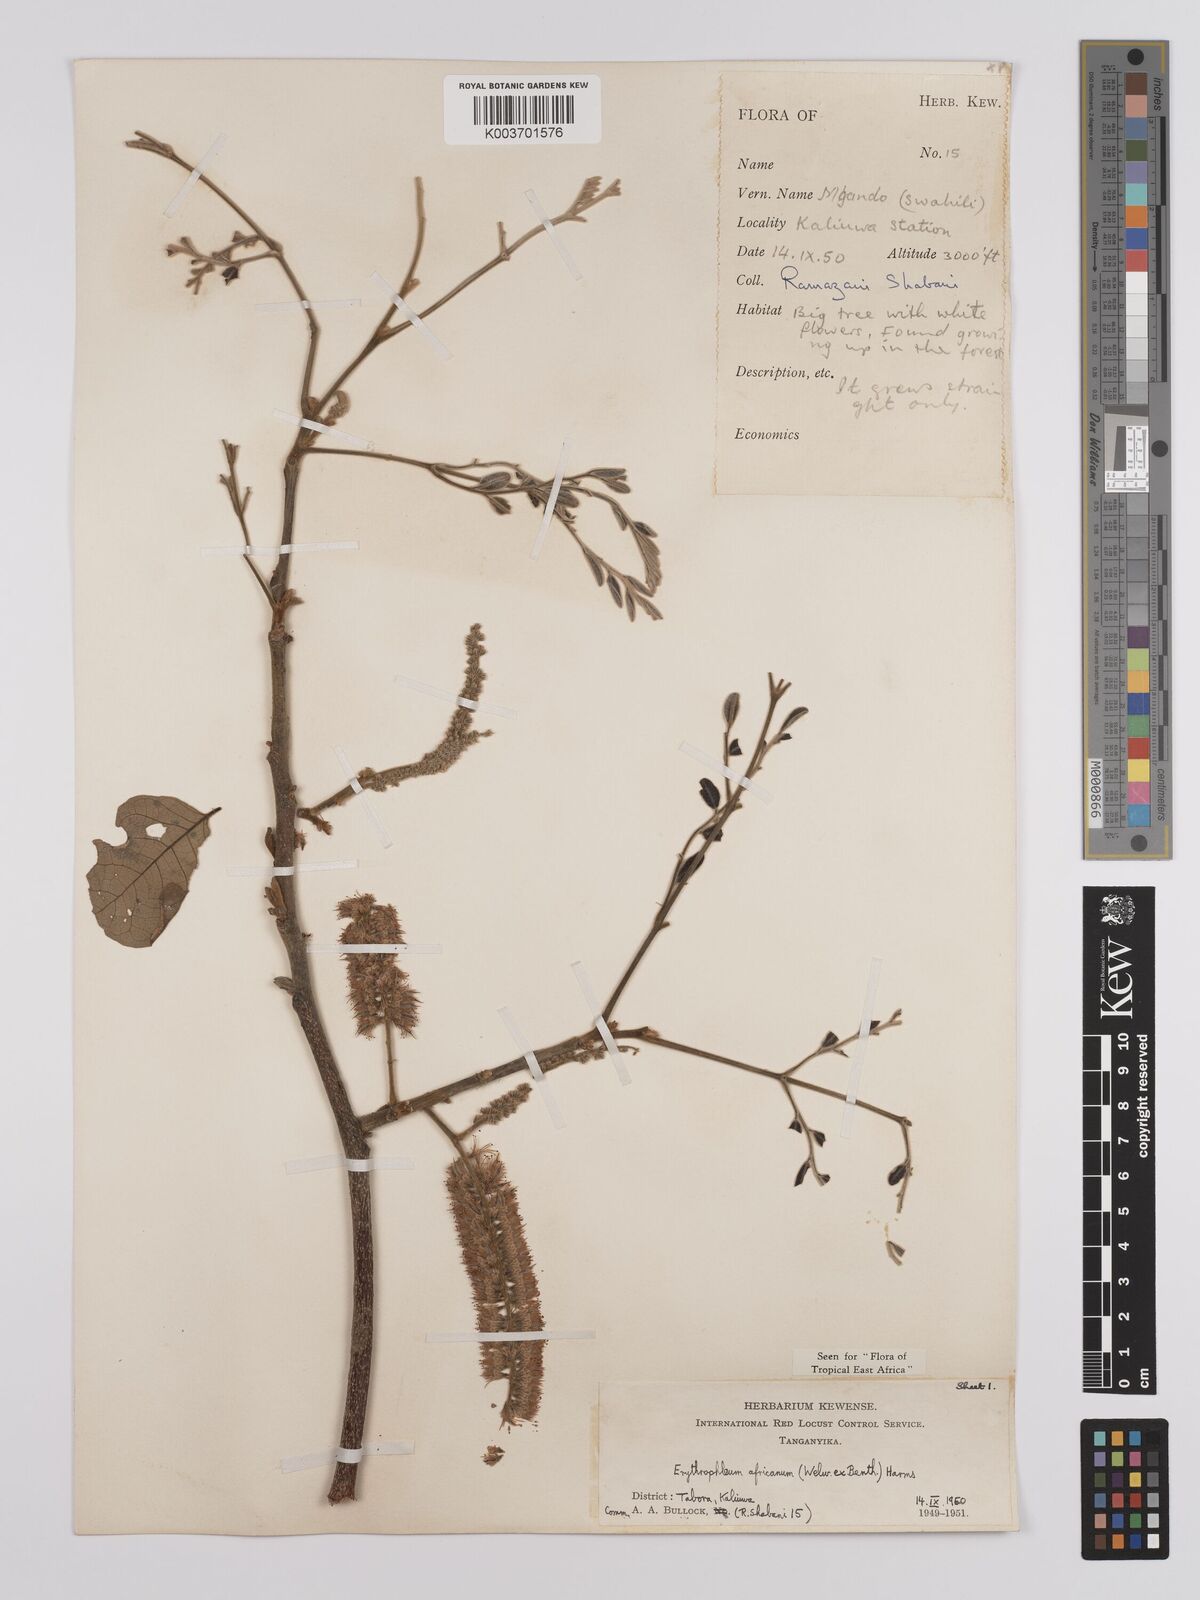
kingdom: Plantae
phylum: Tracheophyta
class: Magnoliopsida
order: Fabales
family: Fabaceae
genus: Erythrophleum
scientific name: Erythrophleum africanum
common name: African blackwood
